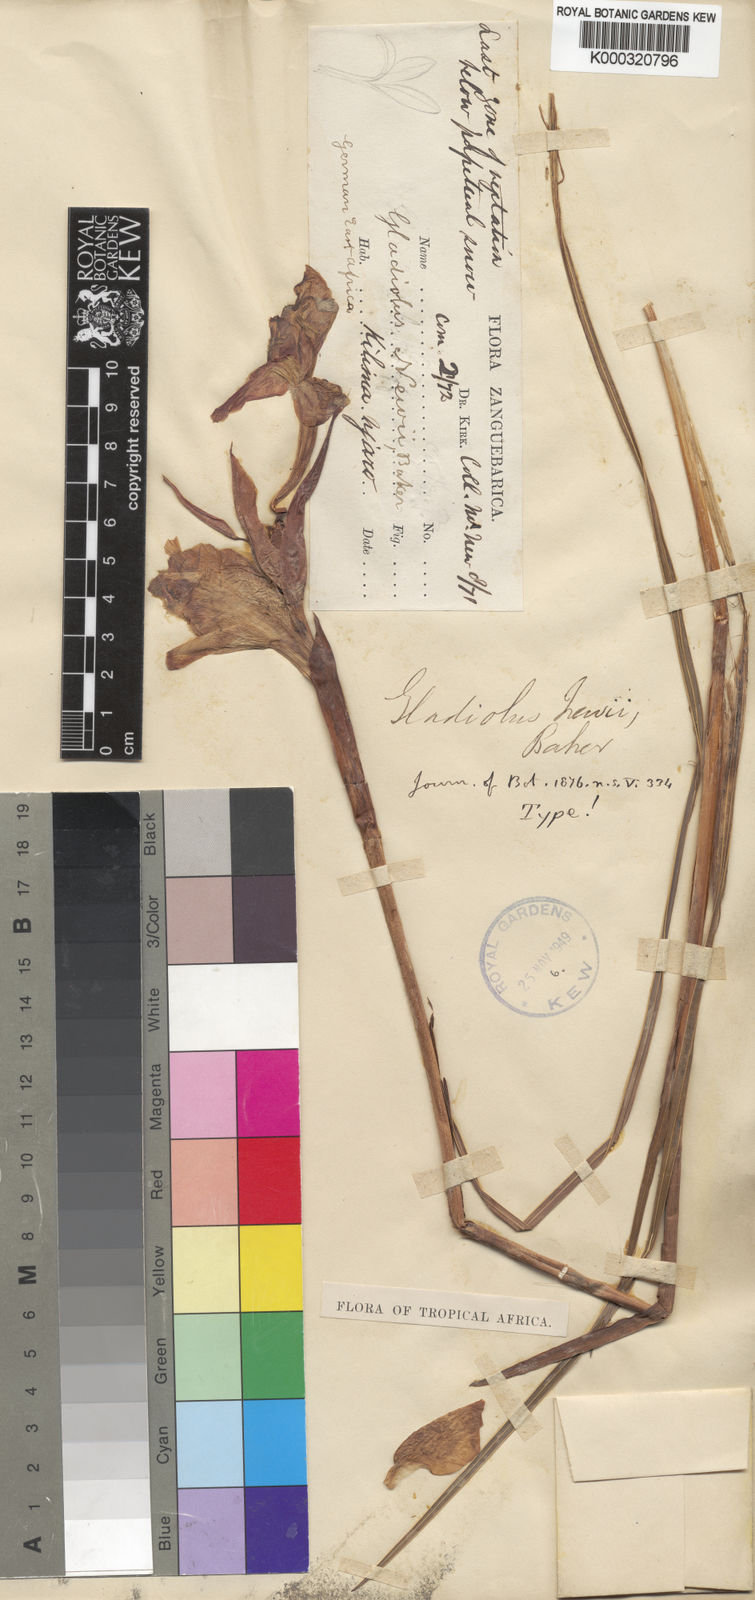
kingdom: Plantae
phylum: Tracheophyta
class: Liliopsida
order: Asparagales
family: Iridaceae
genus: Gladiolus
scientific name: Gladiolus dalenii
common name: Cornflag
